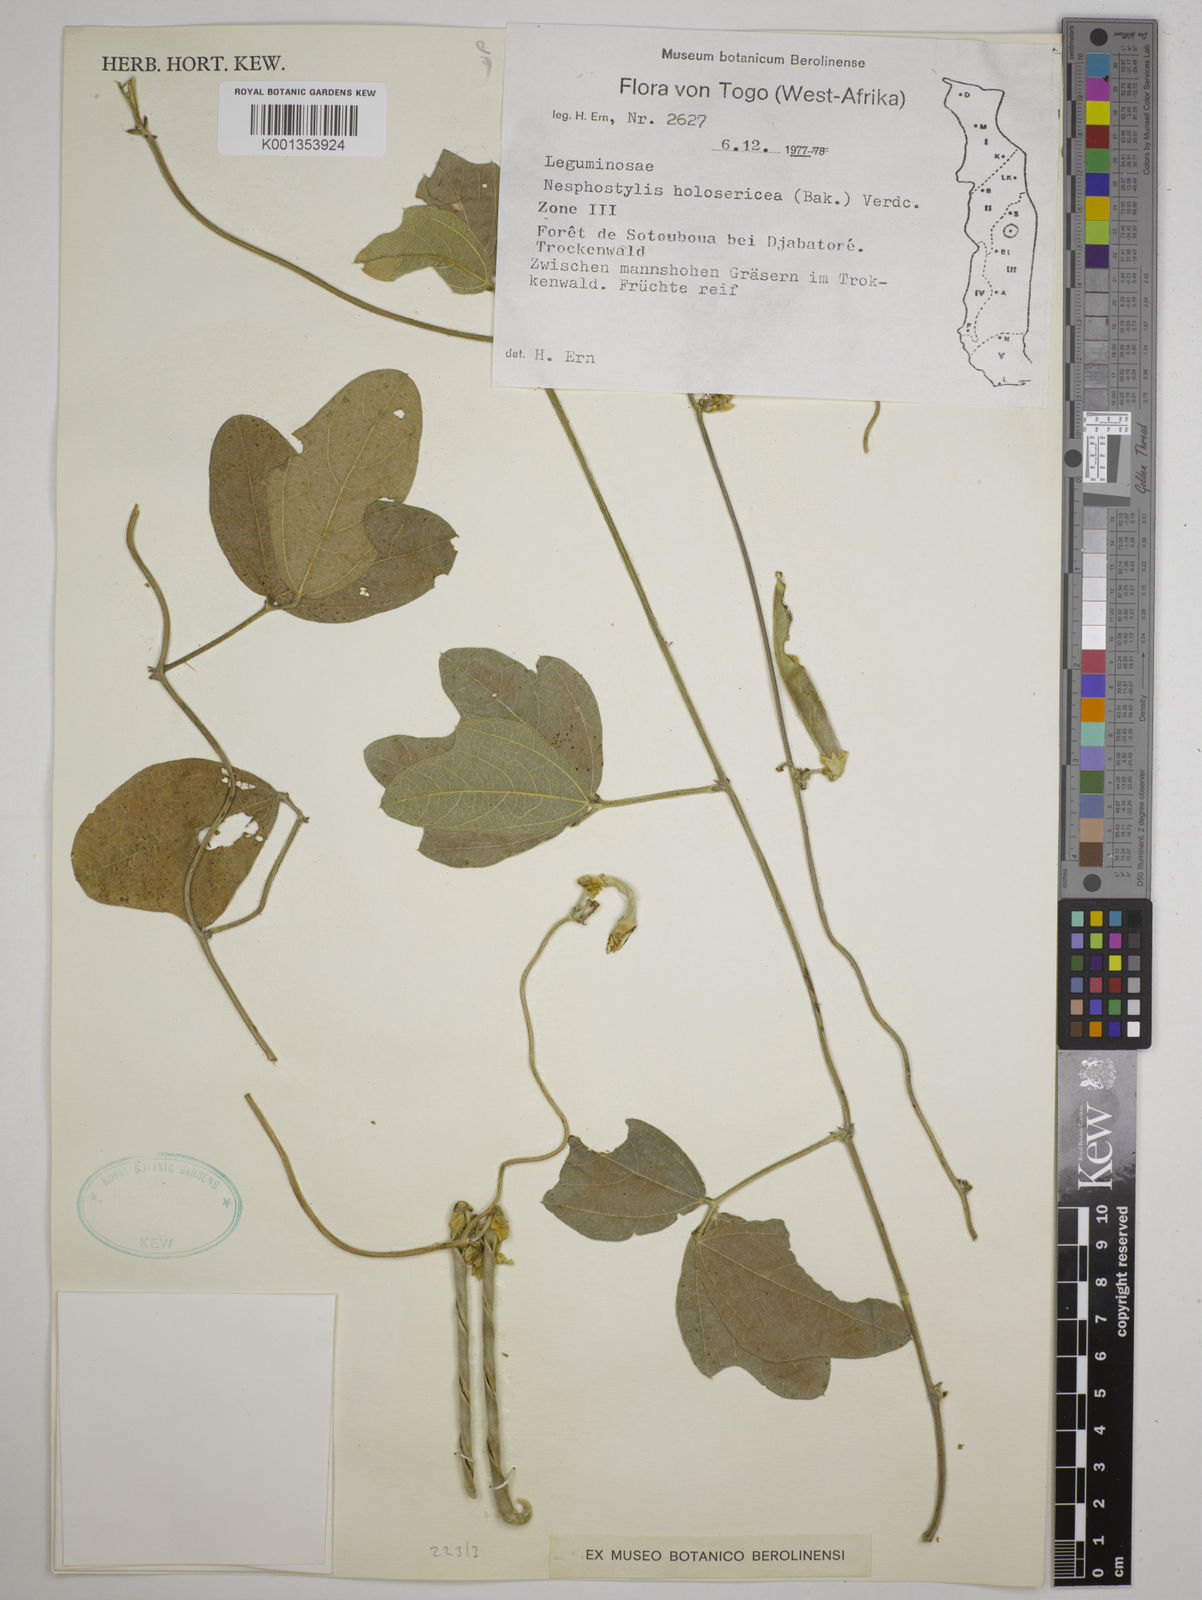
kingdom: Plantae
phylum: Tracheophyta
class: Magnoliopsida
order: Fabales
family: Fabaceae
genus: Nesphostylis
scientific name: Nesphostylis holosericea
